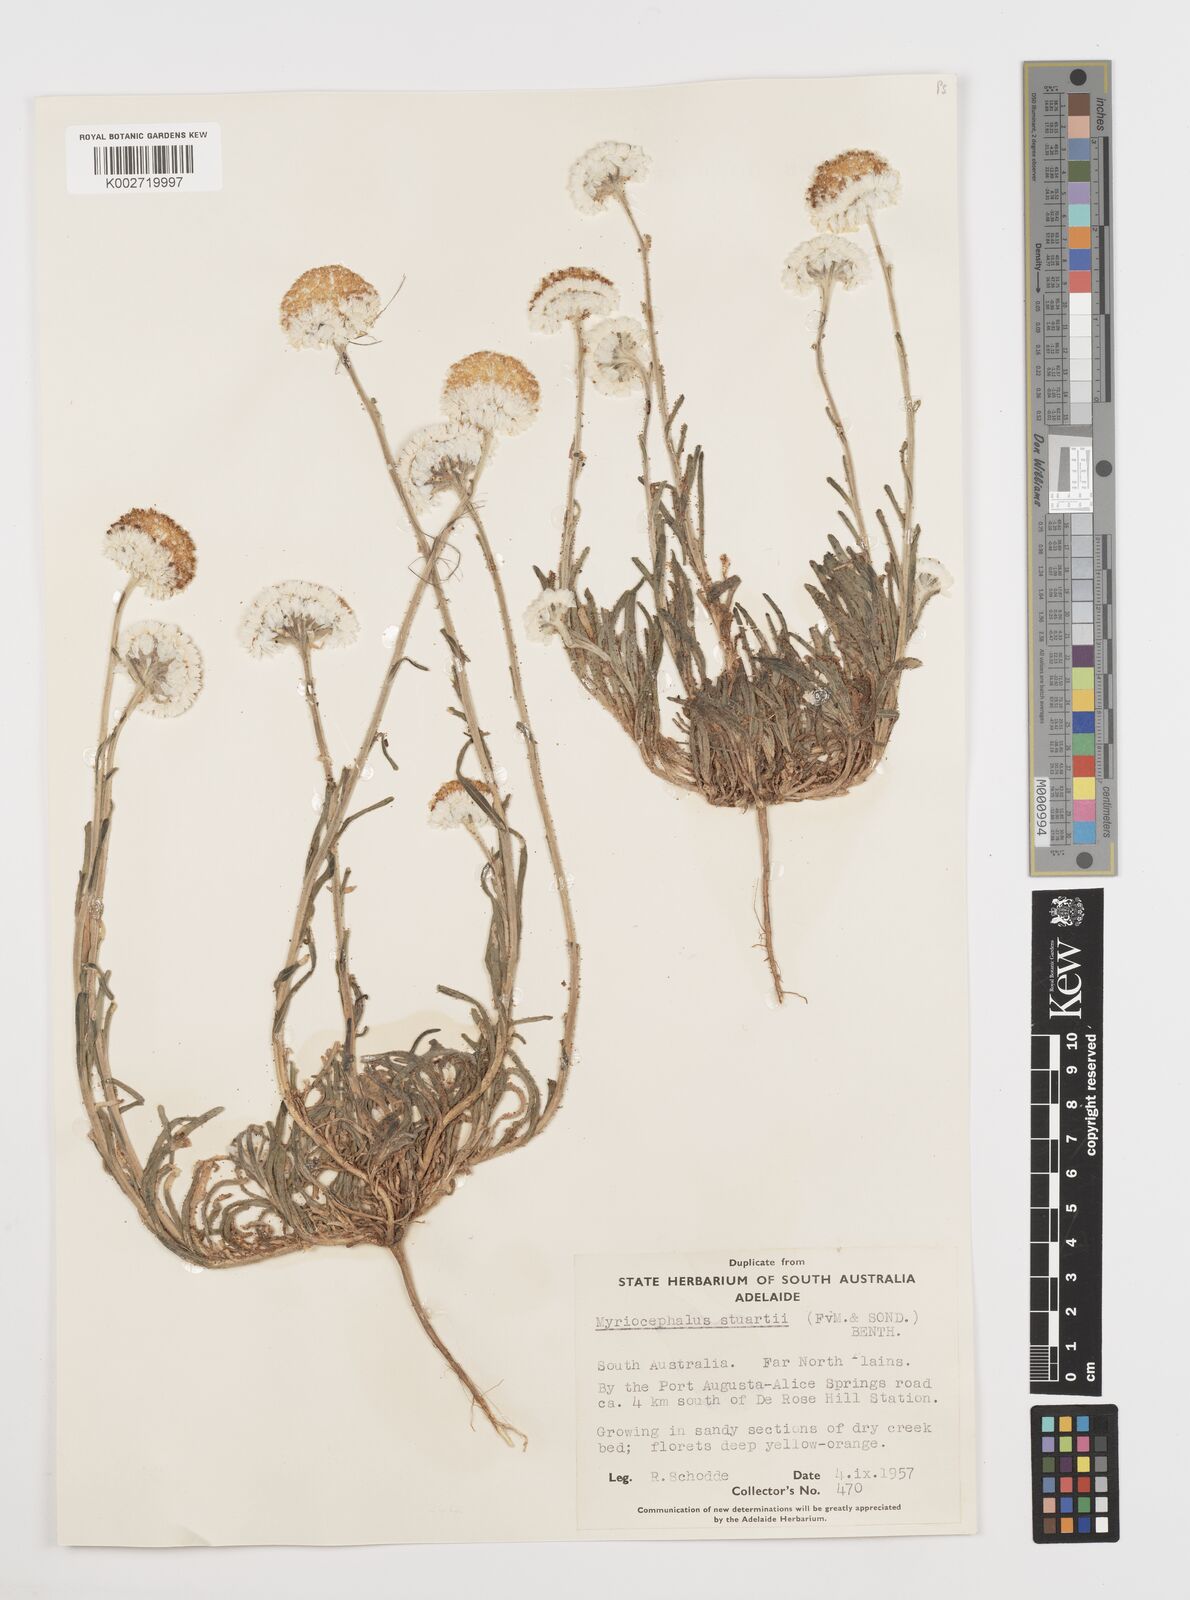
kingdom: Plantae
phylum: Tracheophyta
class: Magnoliopsida
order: Asterales
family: Asteraceae
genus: Polycalymma
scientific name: Polycalymma stuartii
